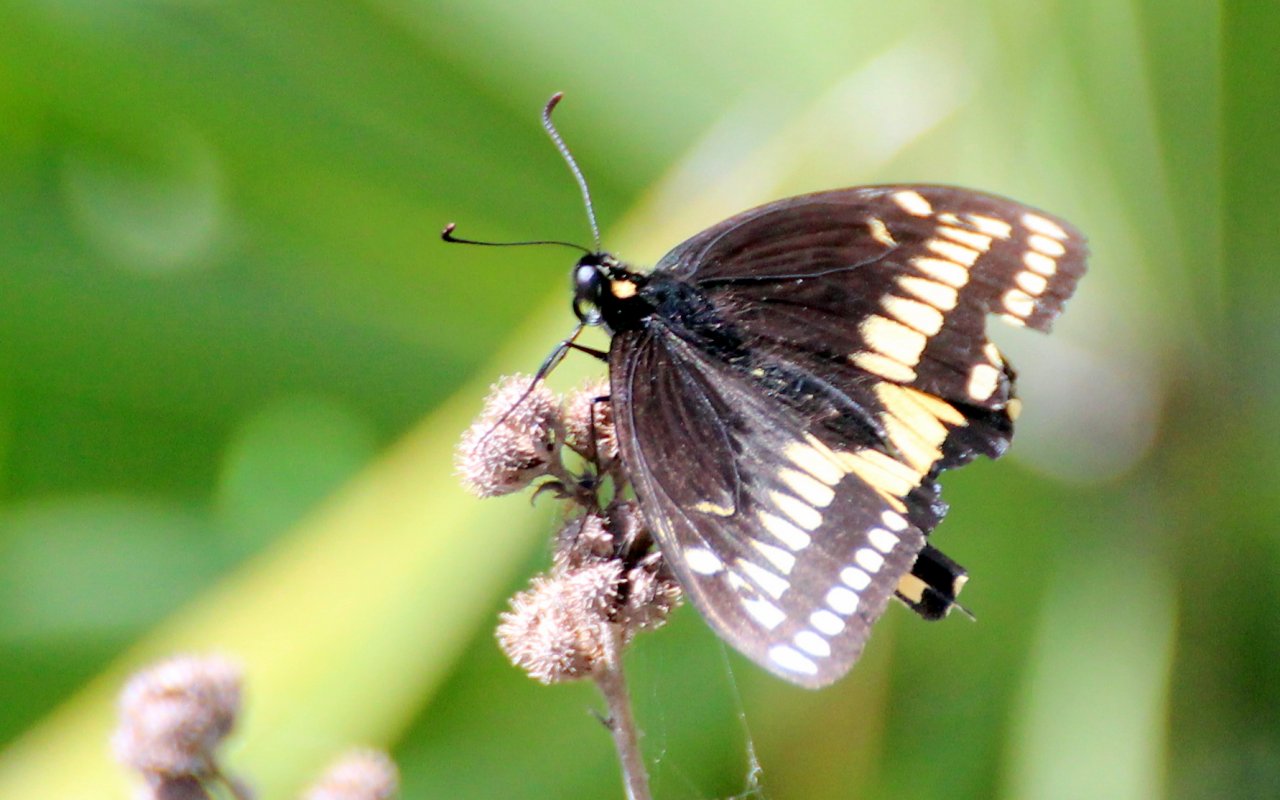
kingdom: Animalia
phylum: Arthropoda
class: Insecta
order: Lepidoptera
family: Papilionidae
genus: Papilio
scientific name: Papilio polyxenes
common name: Black Swallowtail
